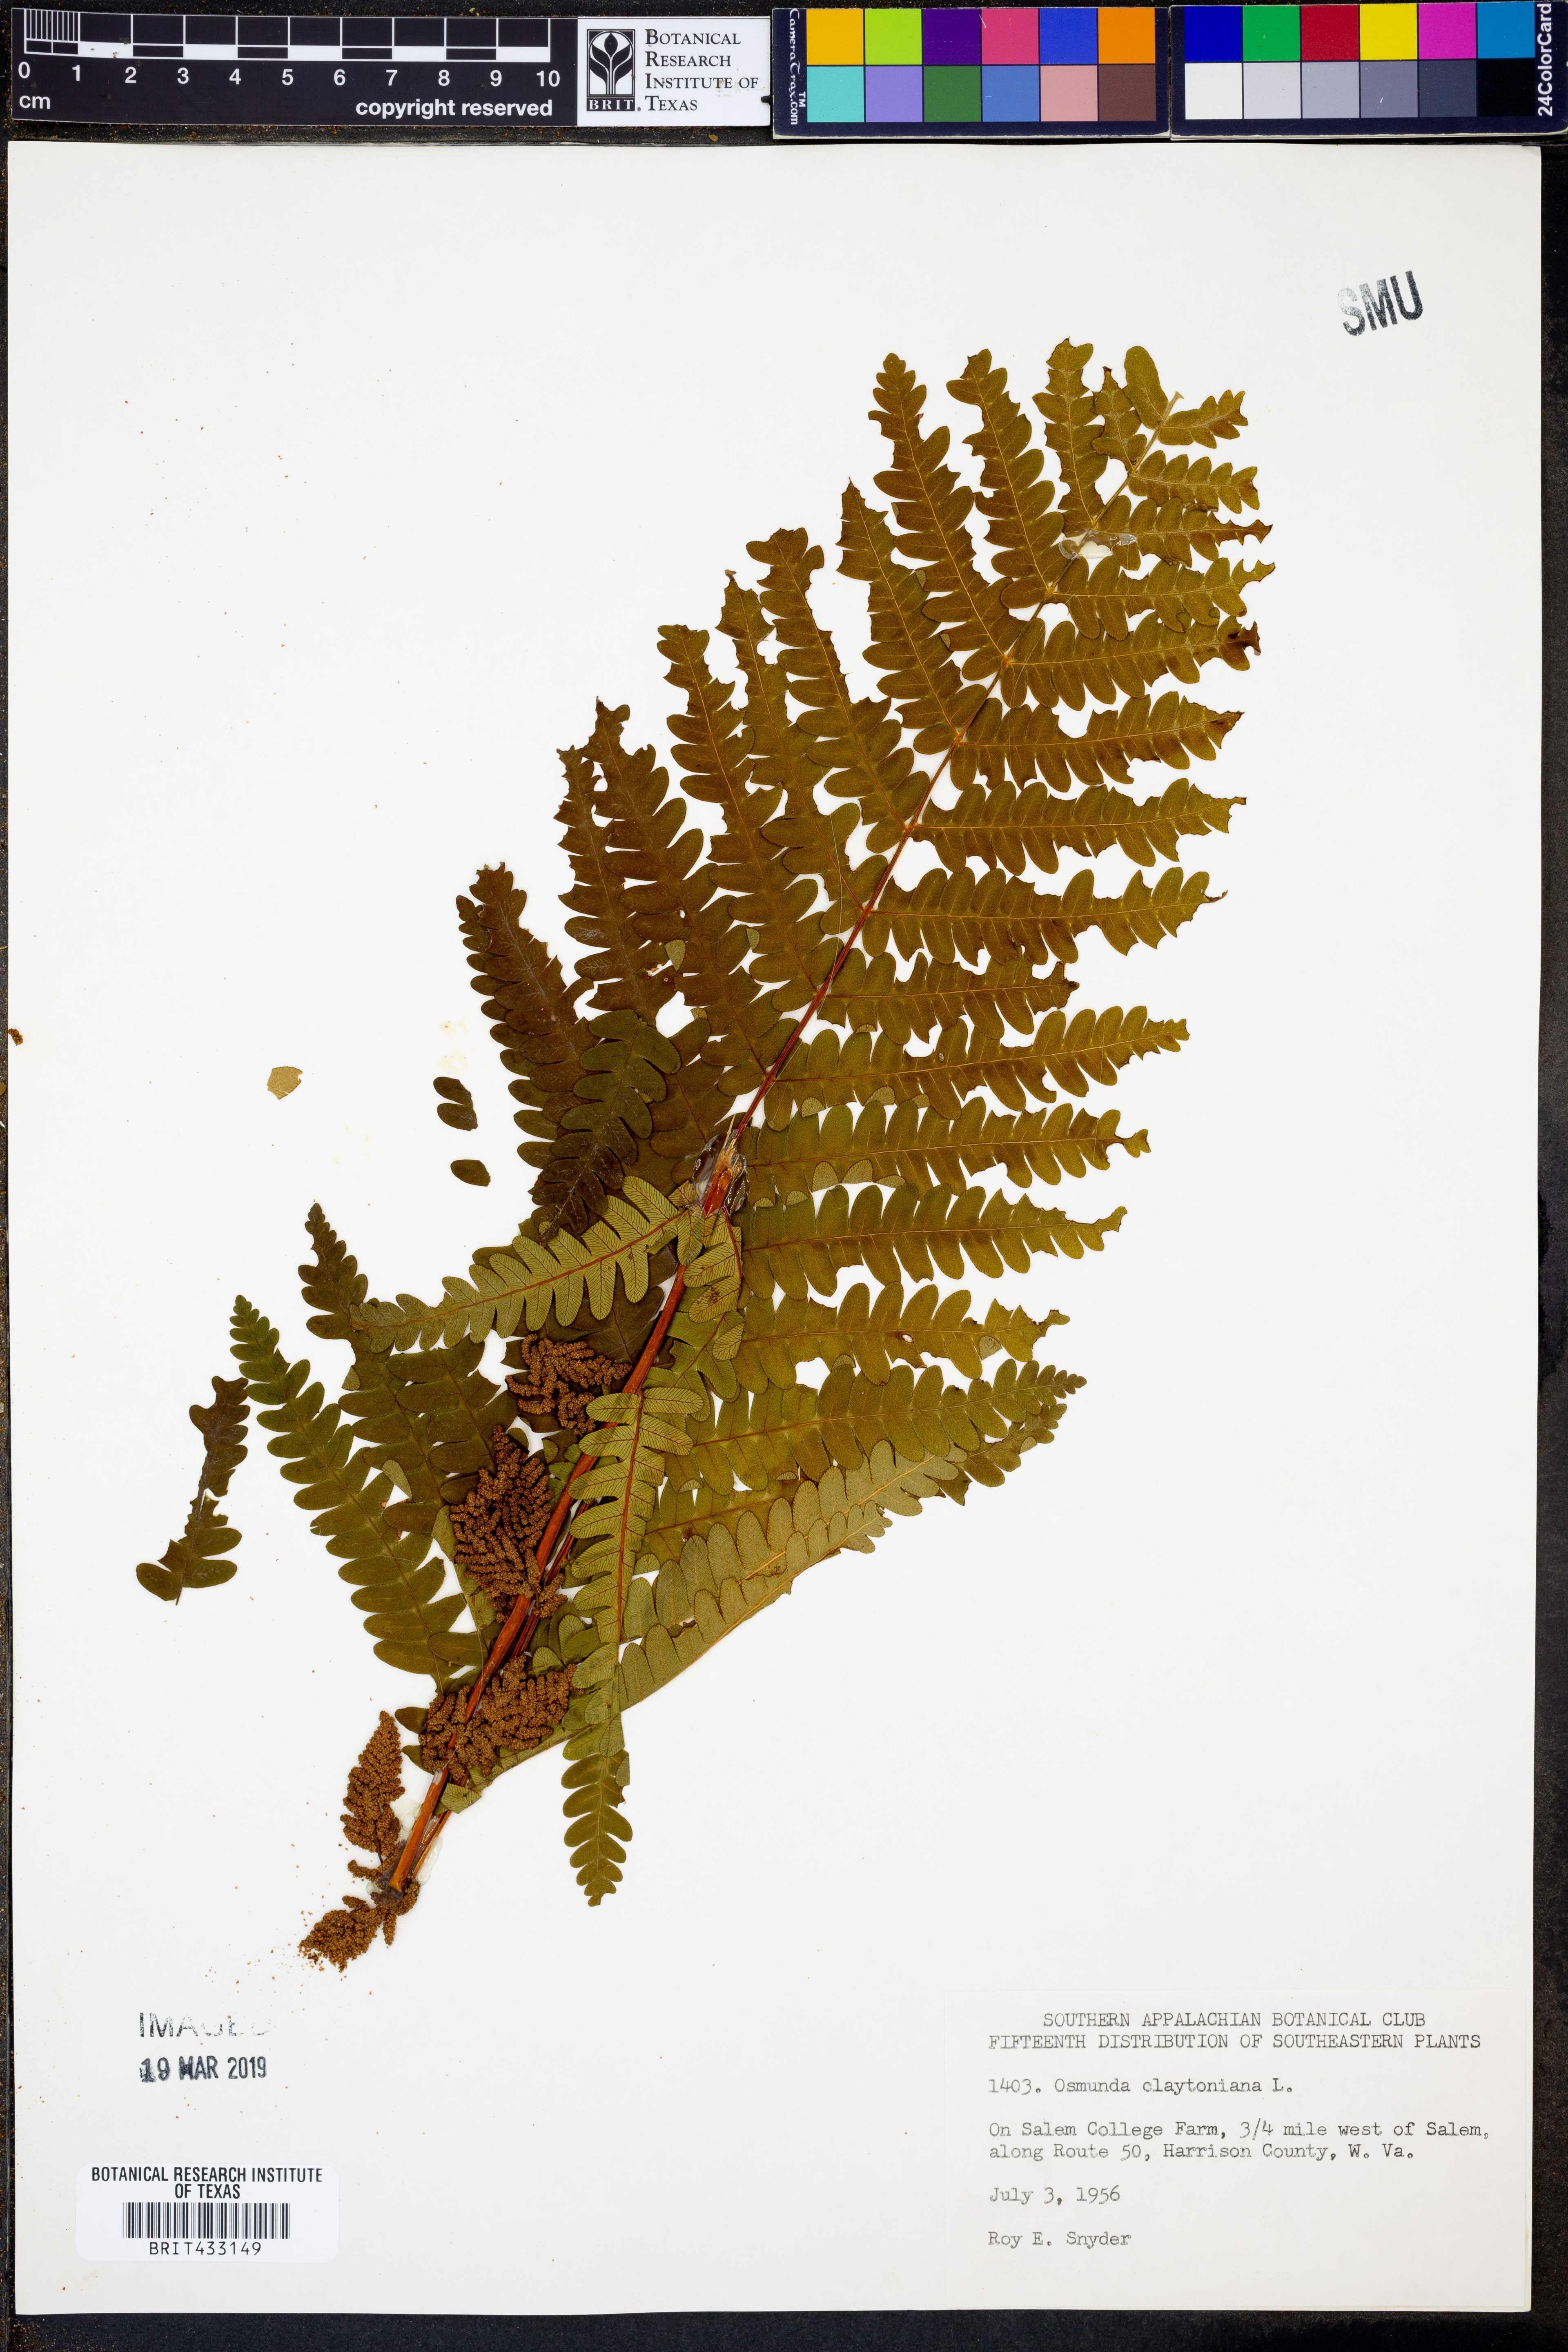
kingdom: Plantae
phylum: Tracheophyta
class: Polypodiopsida
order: Osmundales
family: Osmundaceae
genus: Claytosmunda
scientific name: Claytosmunda claytoniana
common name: Clayton's fern
